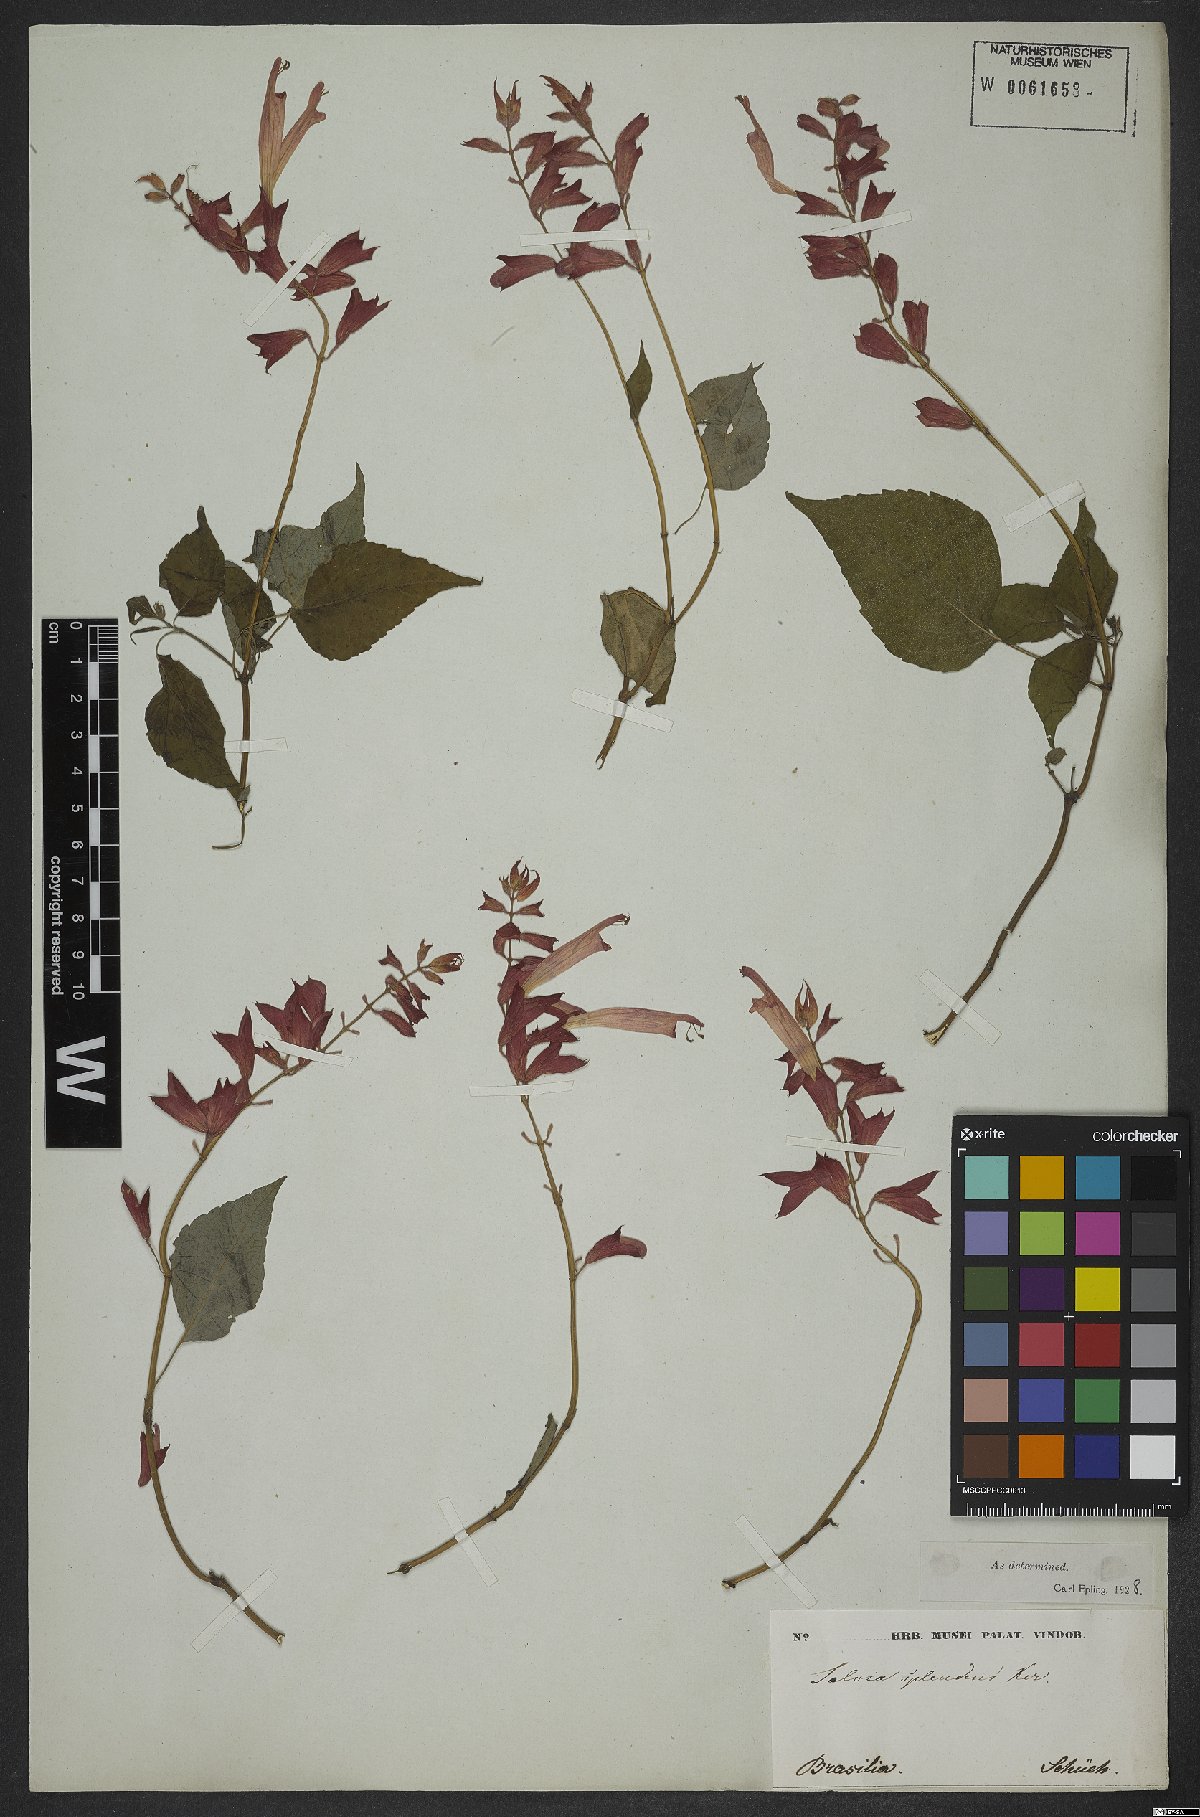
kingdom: Plantae
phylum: Tracheophyta
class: Magnoliopsida
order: Lamiales
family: Lamiaceae
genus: Salvia
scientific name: Salvia splendens
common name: Scarlet sage
